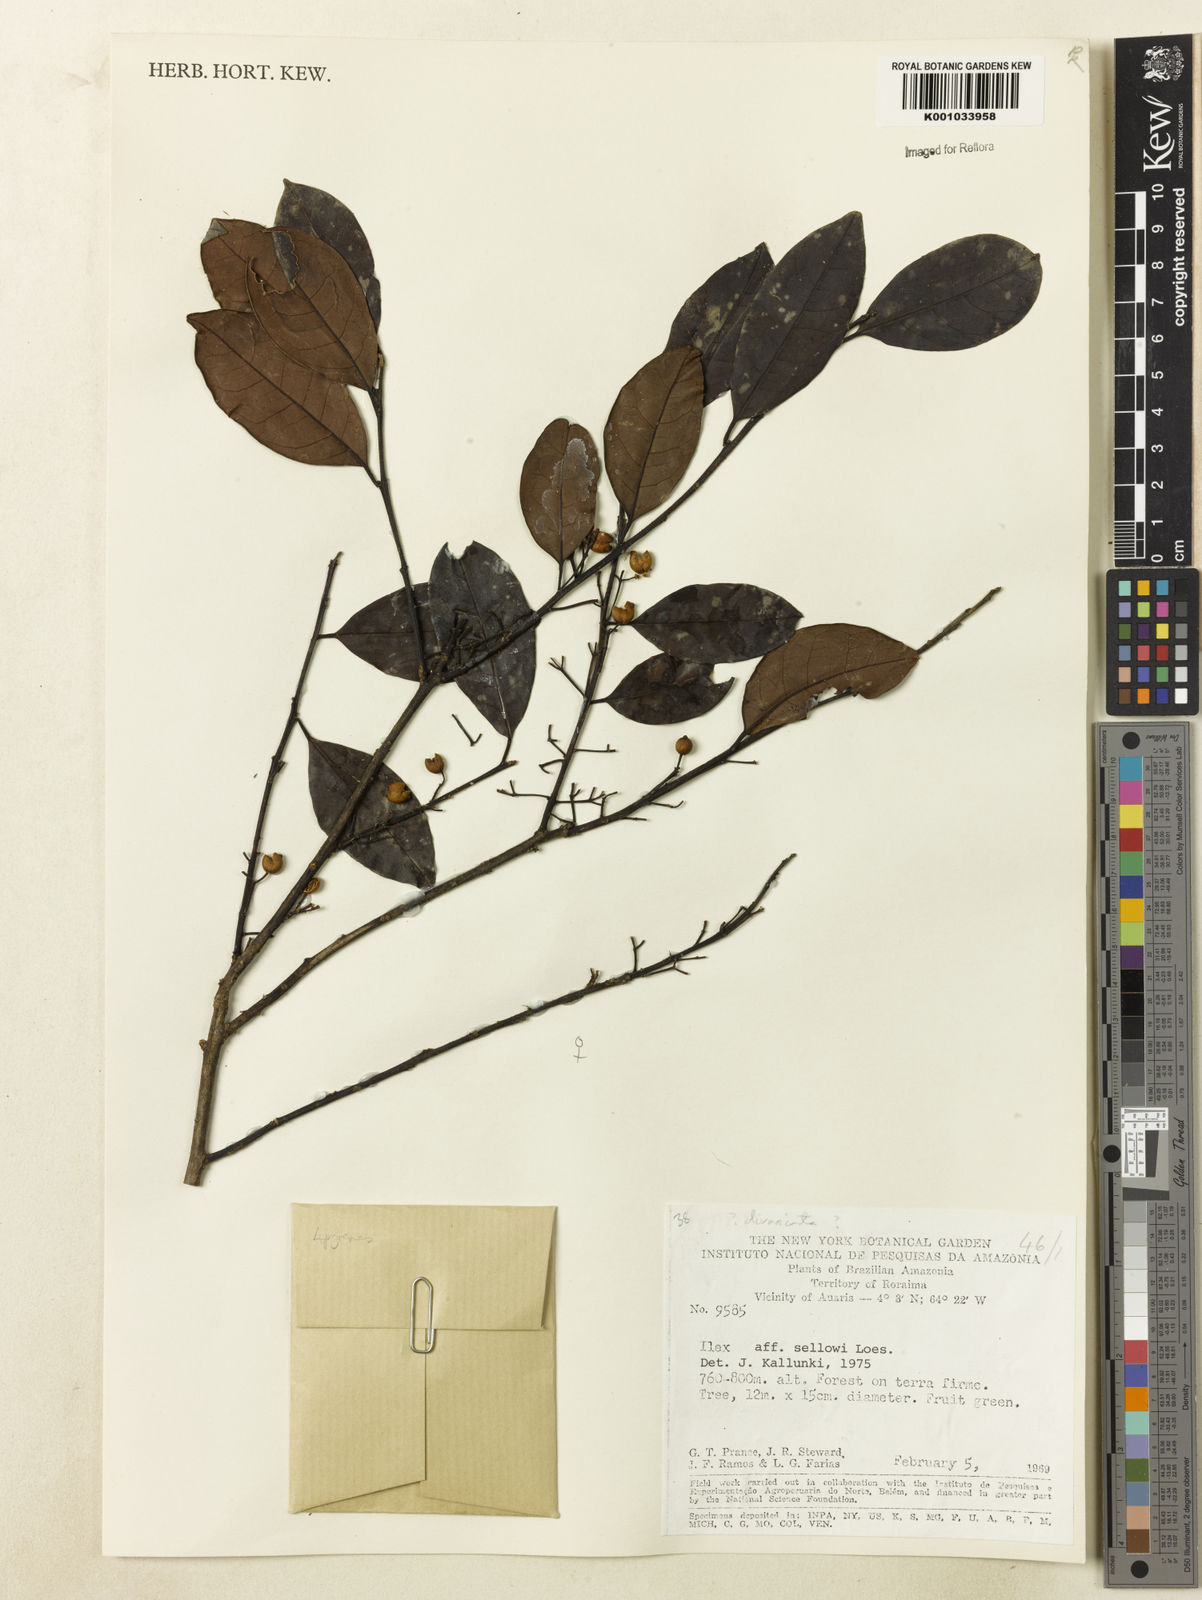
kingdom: Plantae
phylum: Tracheophyta
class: Magnoliopsida
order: Aquifoliales
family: Aquifoliaceae
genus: Ilex
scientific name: Ilex divaricata
